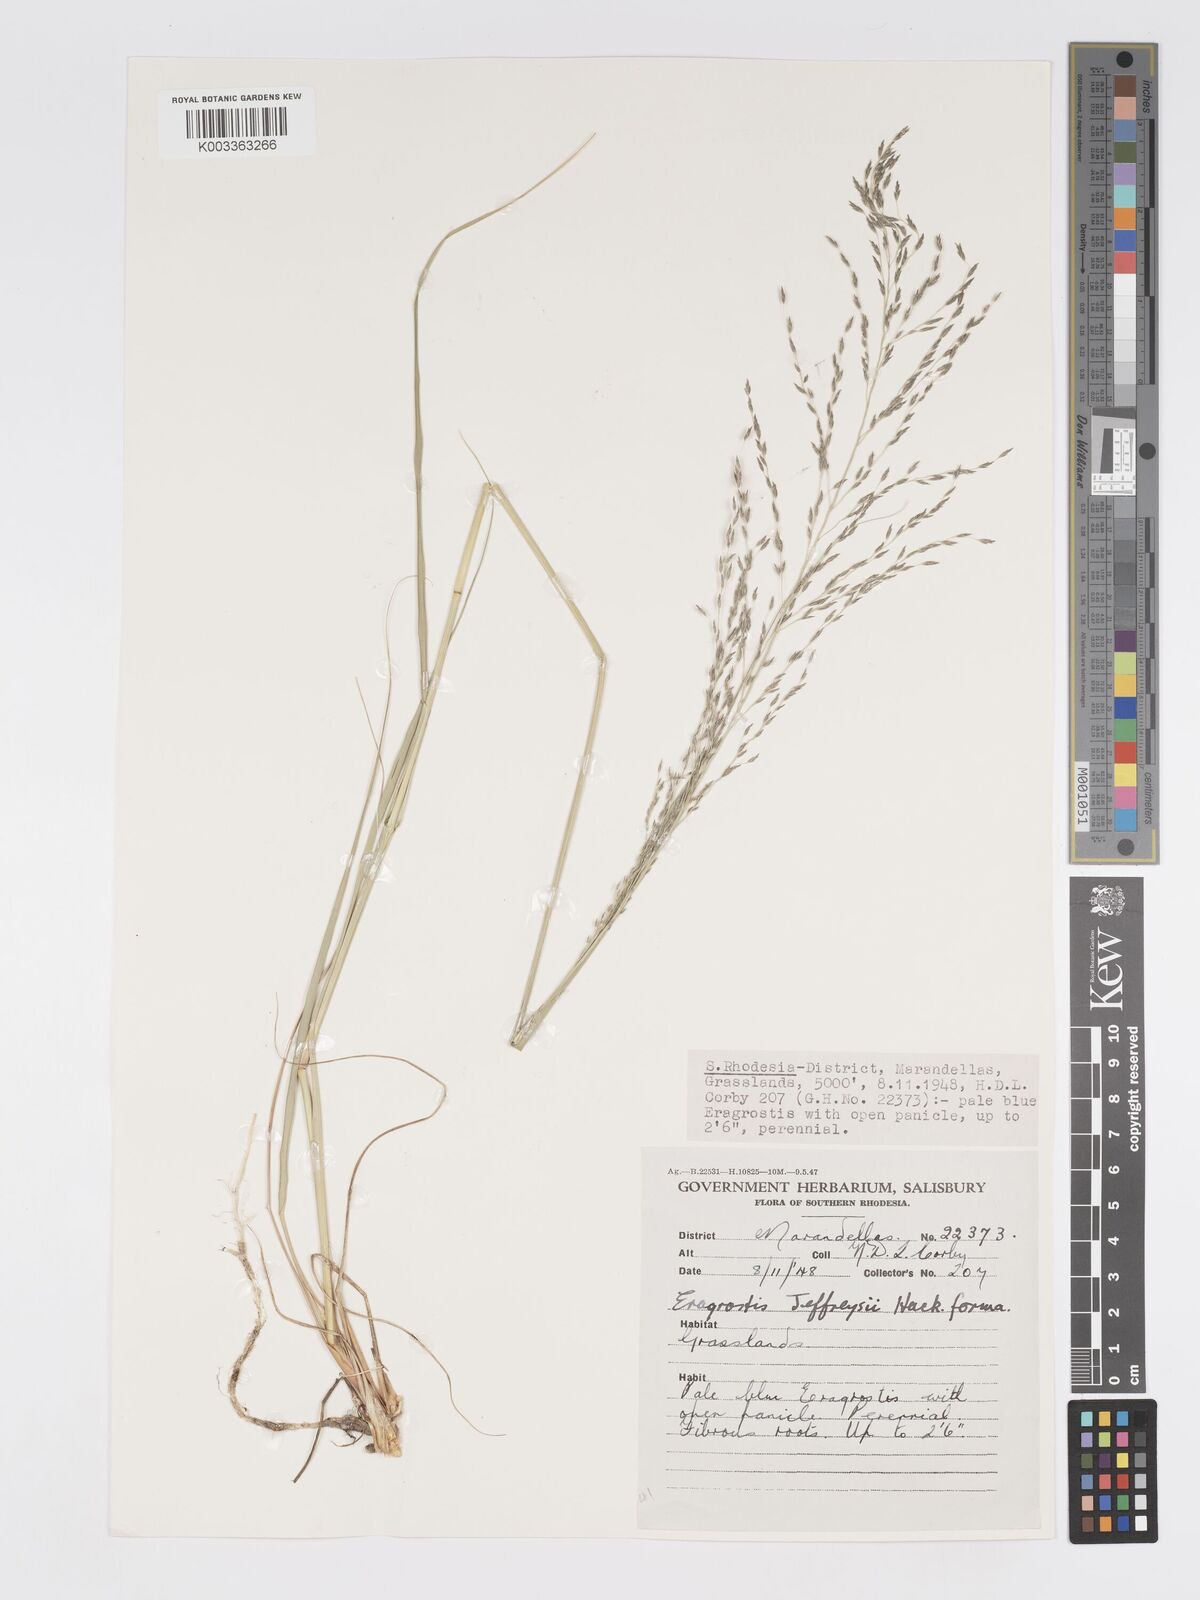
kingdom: Plantae
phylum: Tracheophyta
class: Liliopsida
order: Poales
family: Poaceae
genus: Eragrostis
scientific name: Eragrostis curvula
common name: African love-grass
